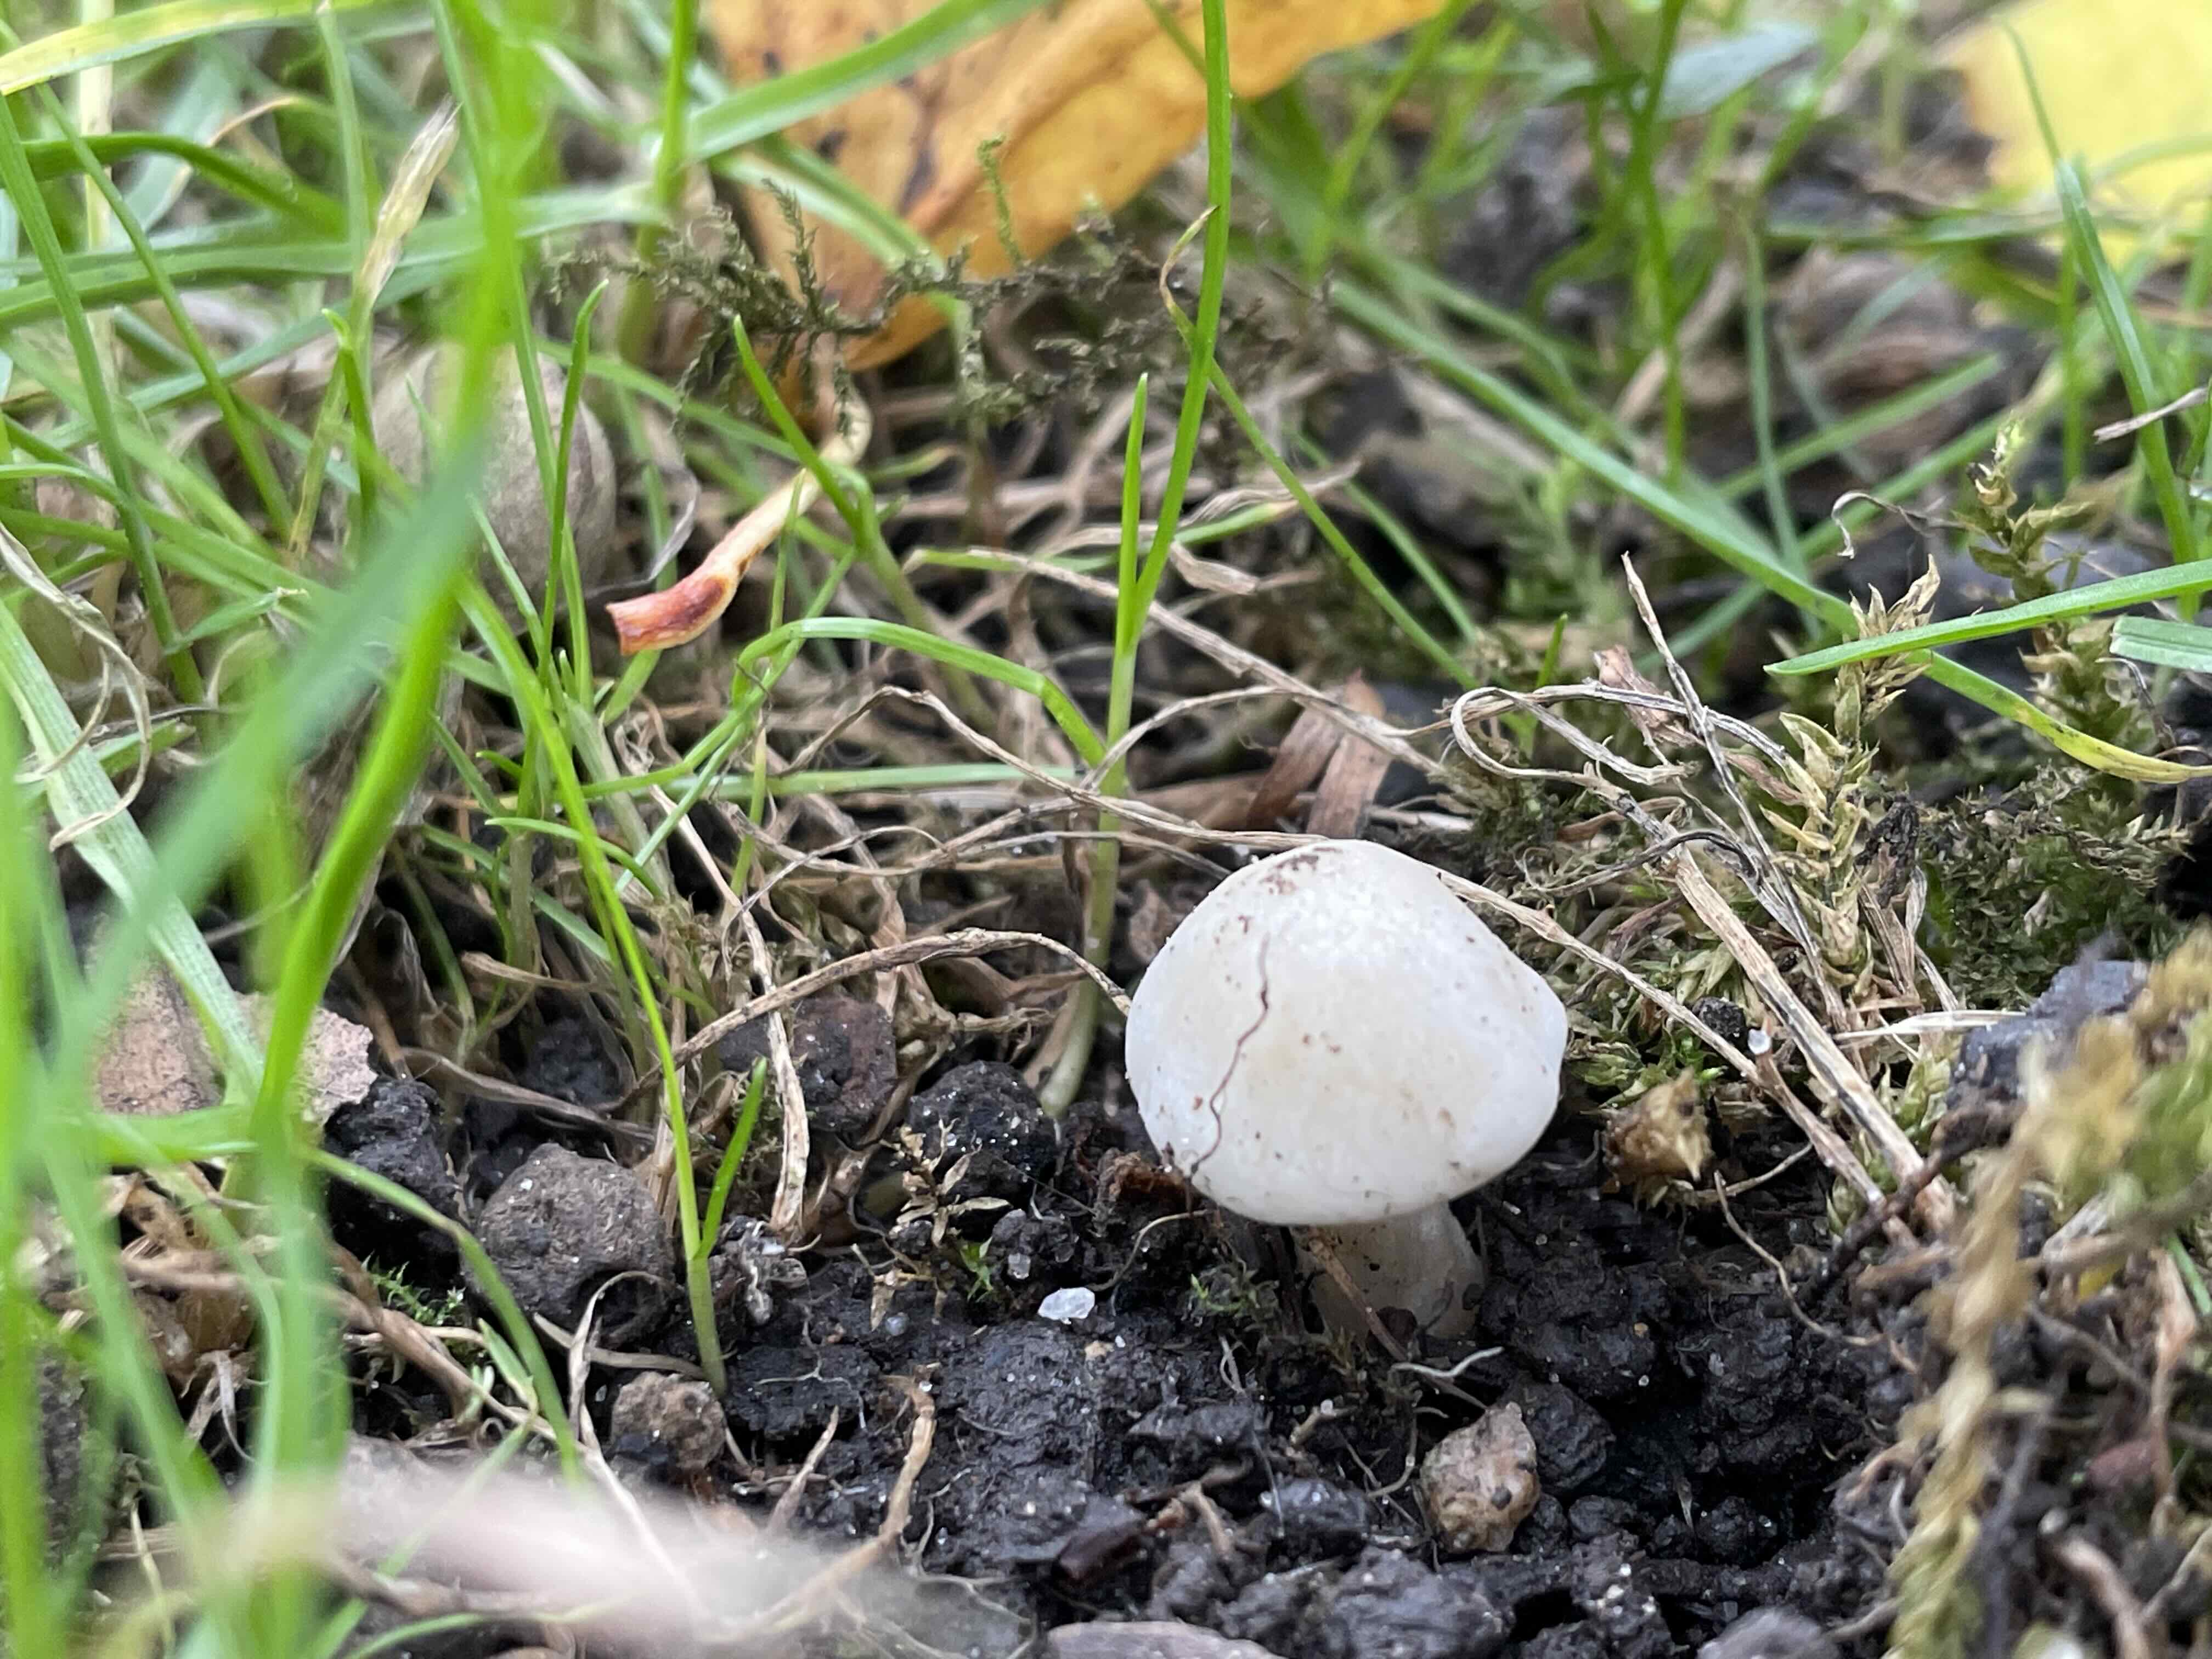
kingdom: Fungi
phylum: Basidiomycota
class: Agaricomycetes
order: Agaricales
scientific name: Agaricales
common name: champignonordenen
